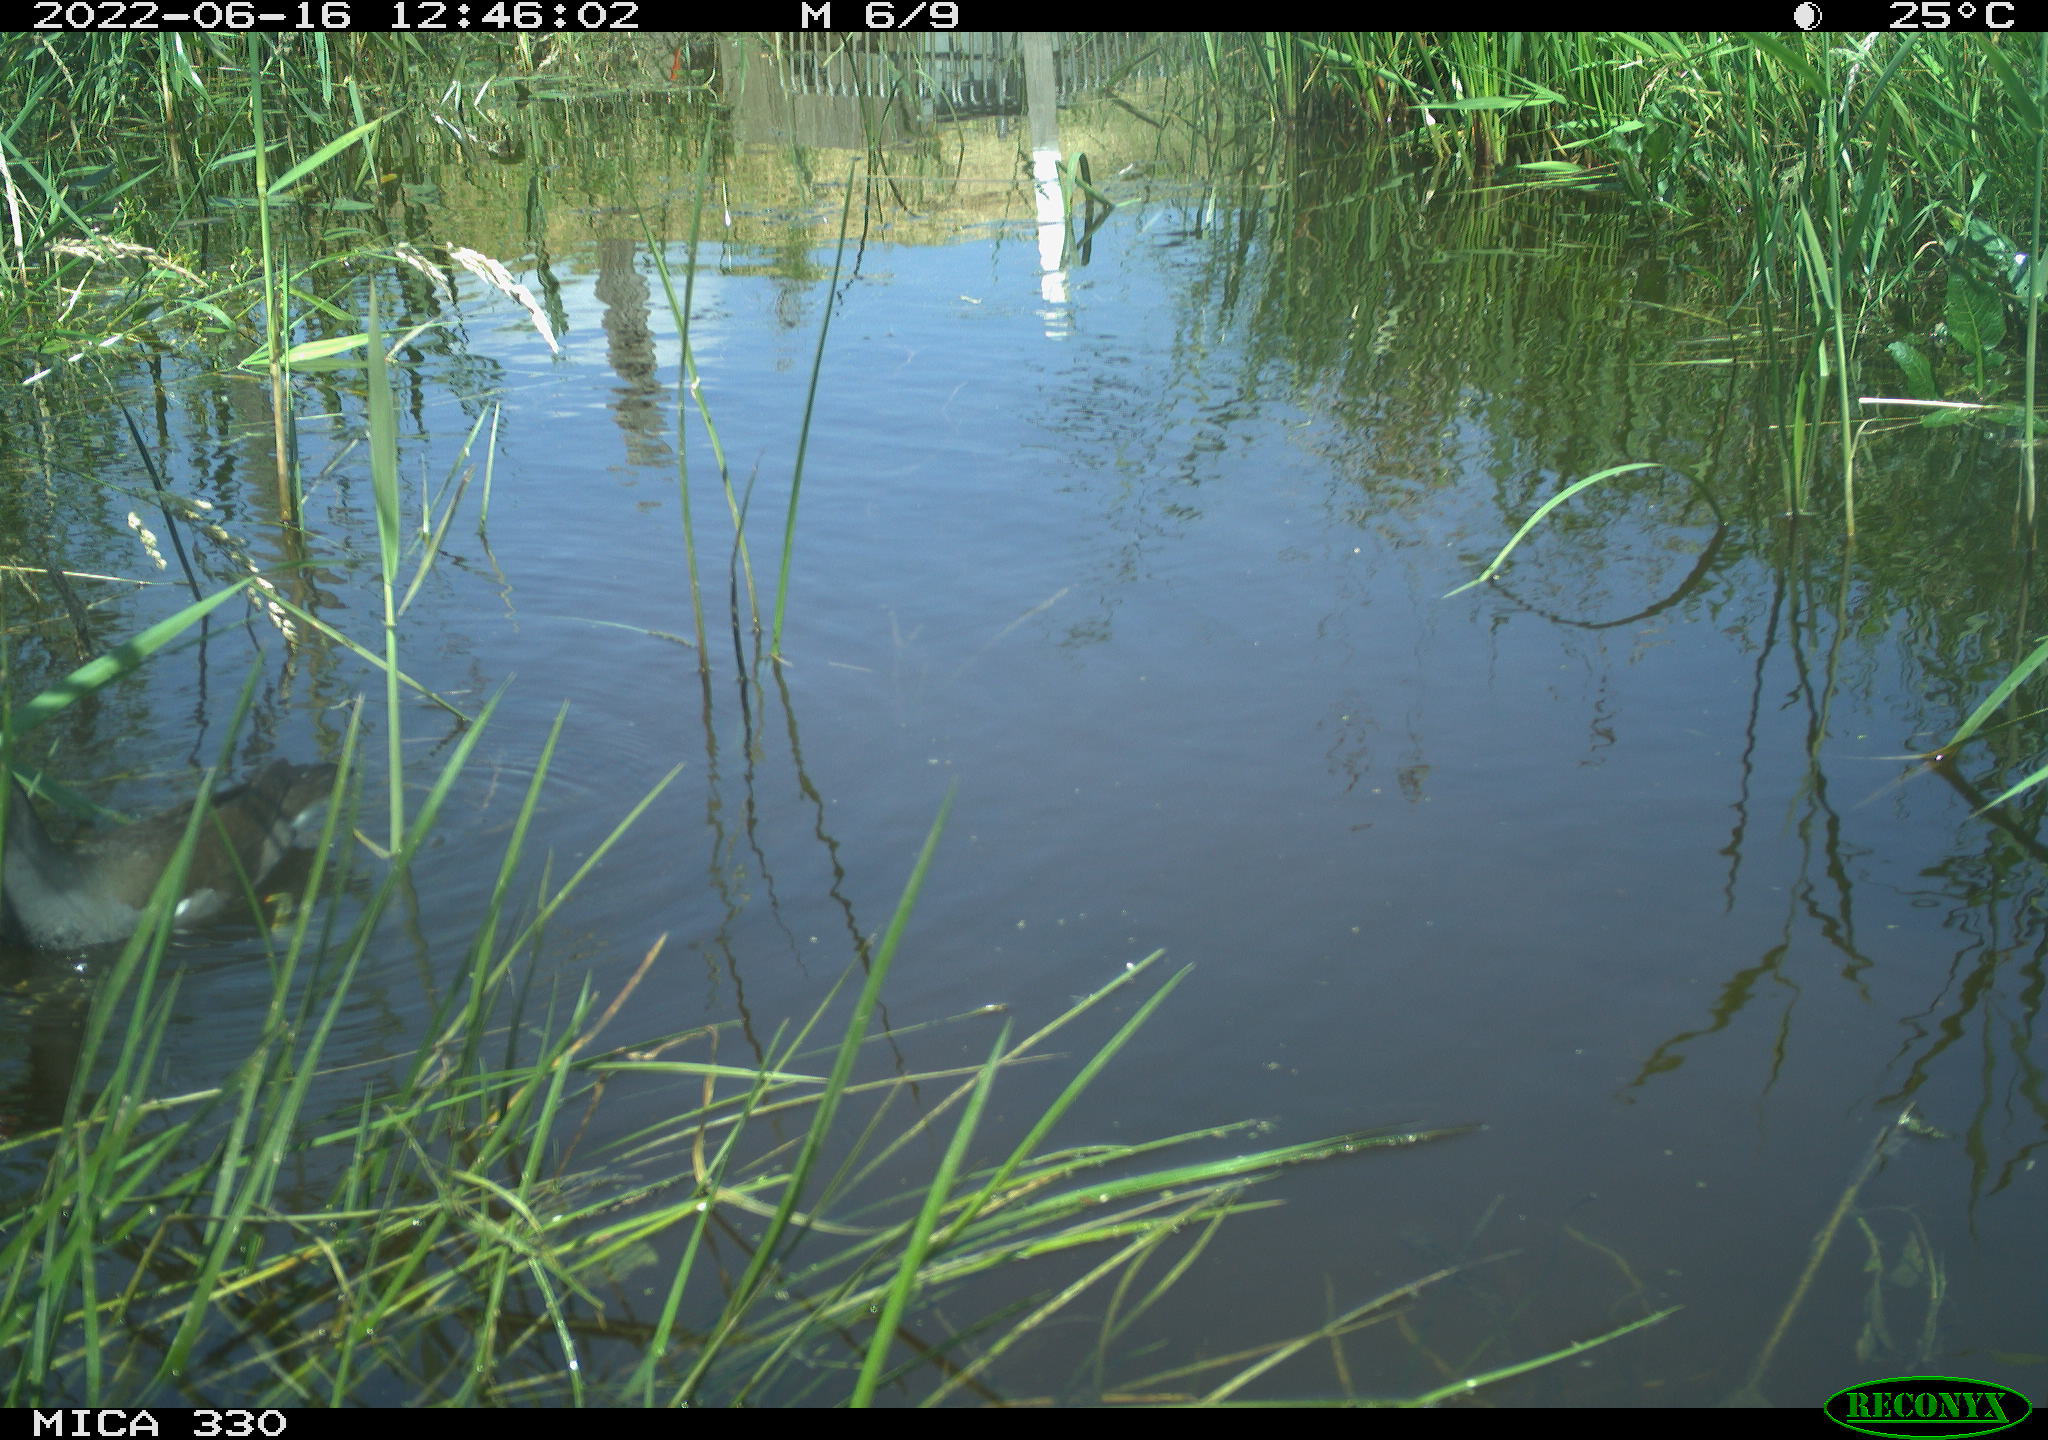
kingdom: Animalia
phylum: Chordata
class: Aves
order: Gruiformes
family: Rallidae
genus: Gallinula
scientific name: Gallinula chloropus
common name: Common moorhen
